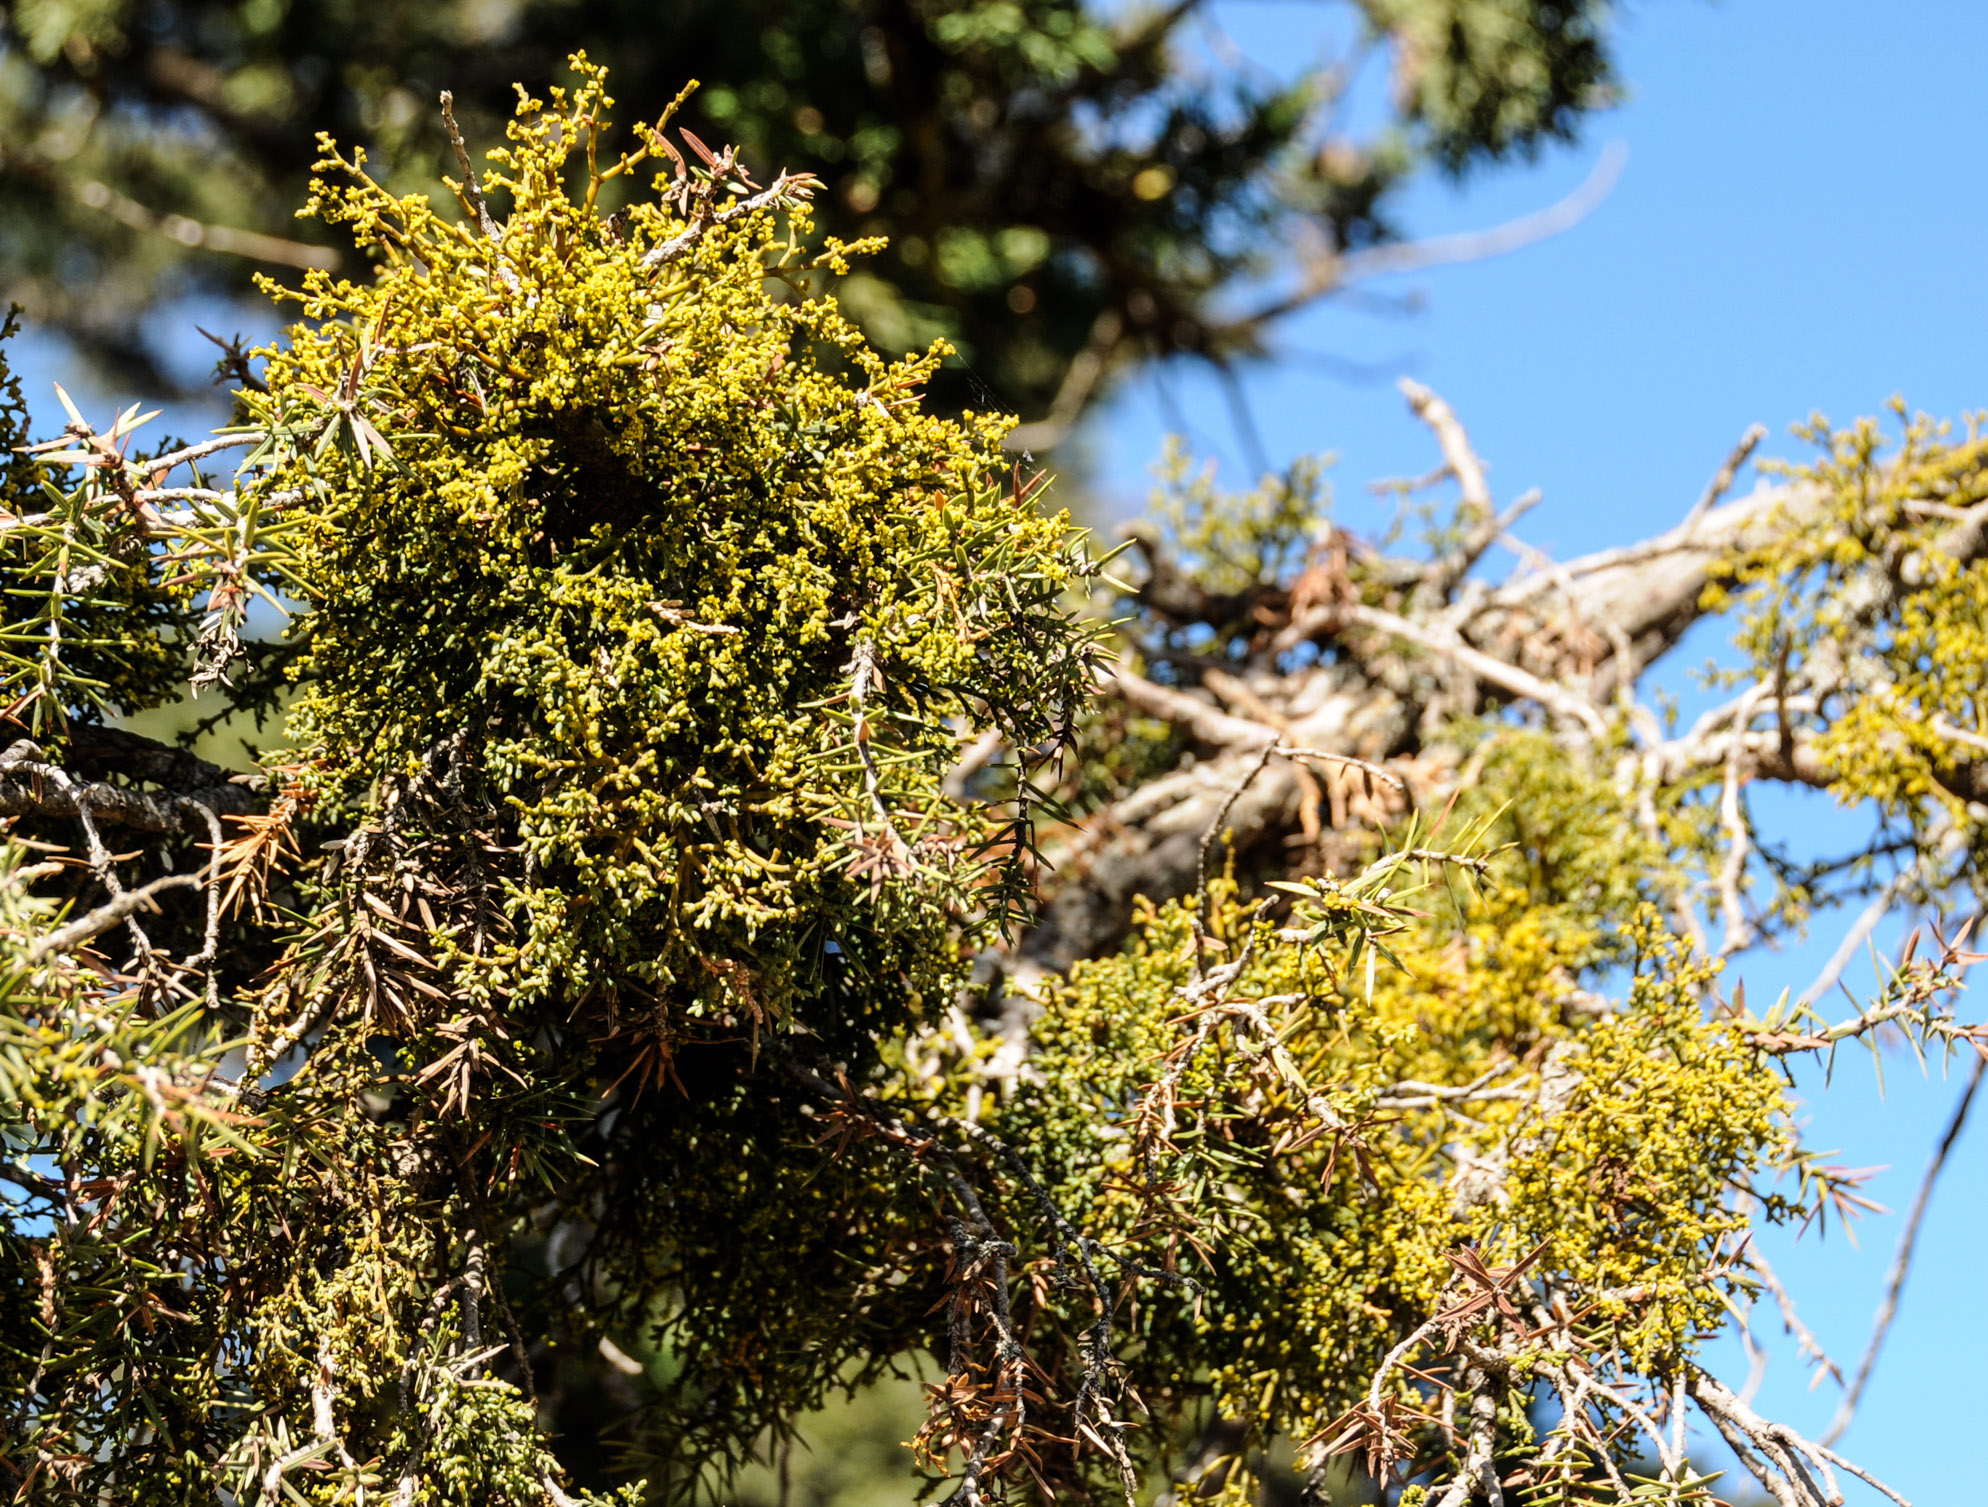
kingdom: Plantae
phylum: Tracheophyta
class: Magnoliopsida
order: Santalales
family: Viscaceae
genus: Arceuthobium
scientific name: Arceuthobium oxycedri
